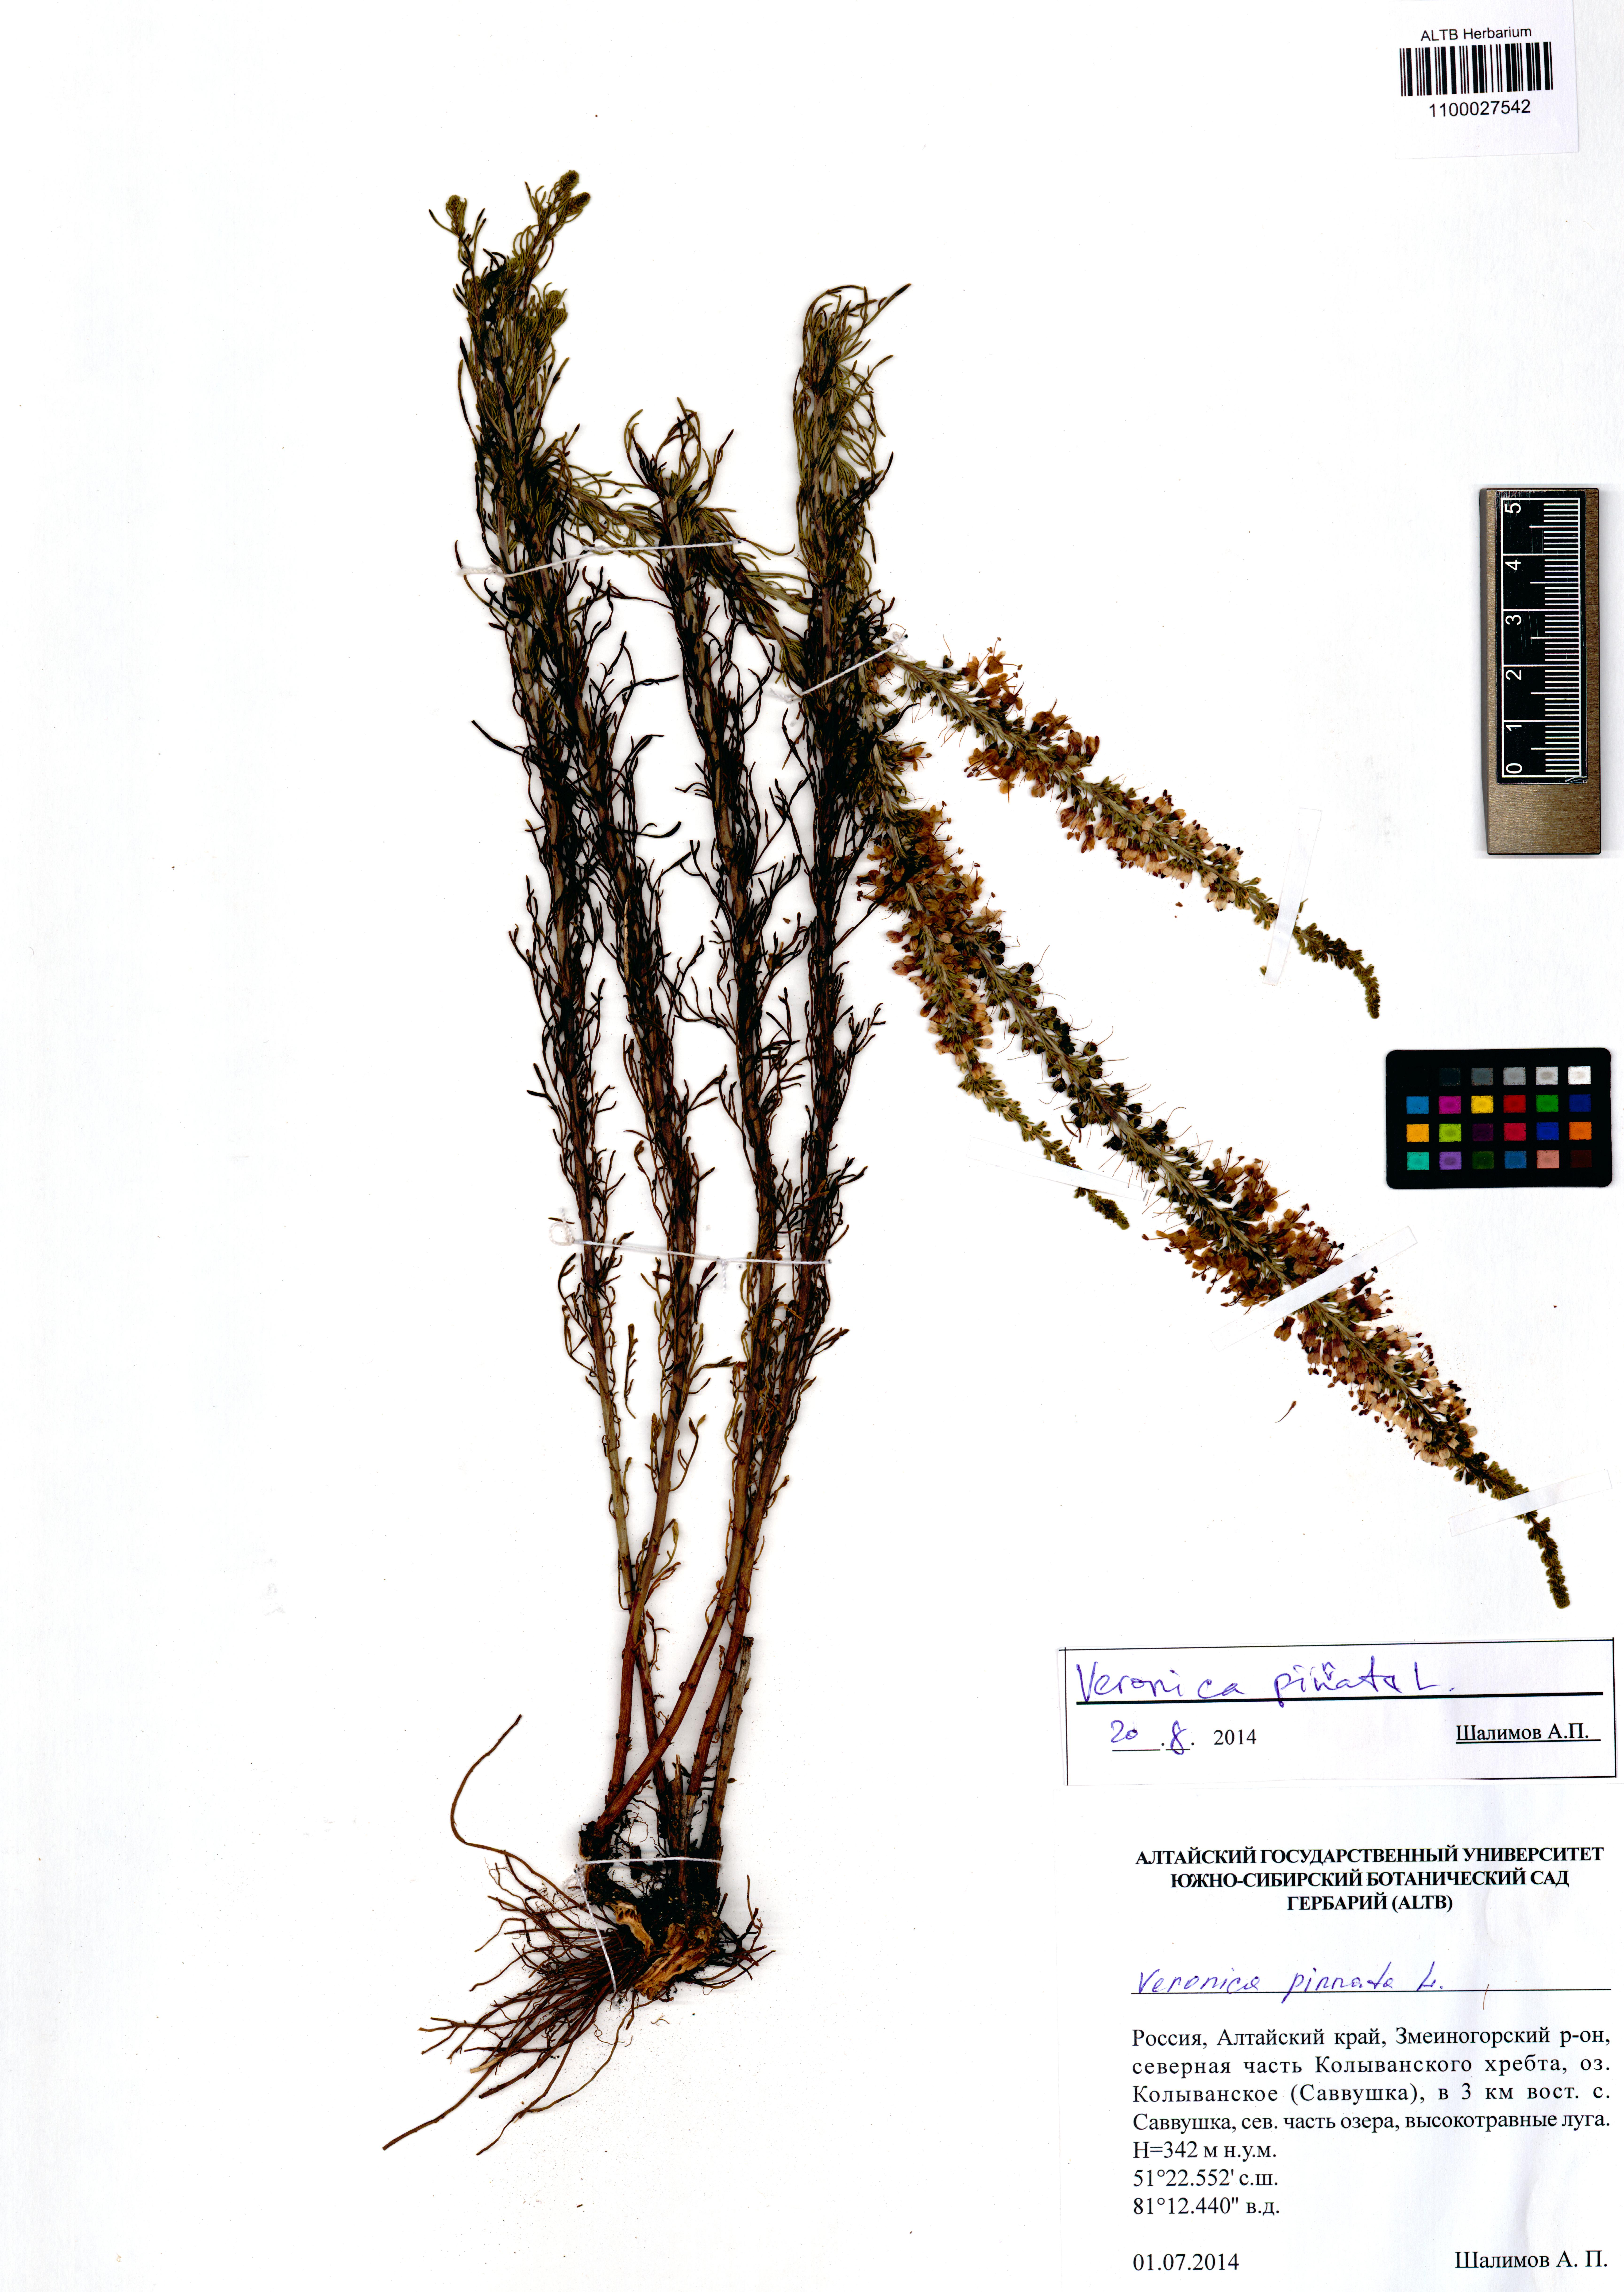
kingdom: Plantae
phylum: Tracheophyta
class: Magnoliopsida
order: Lamiales
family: Plantaginaceae
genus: Veronica
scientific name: Veronica pinnata
